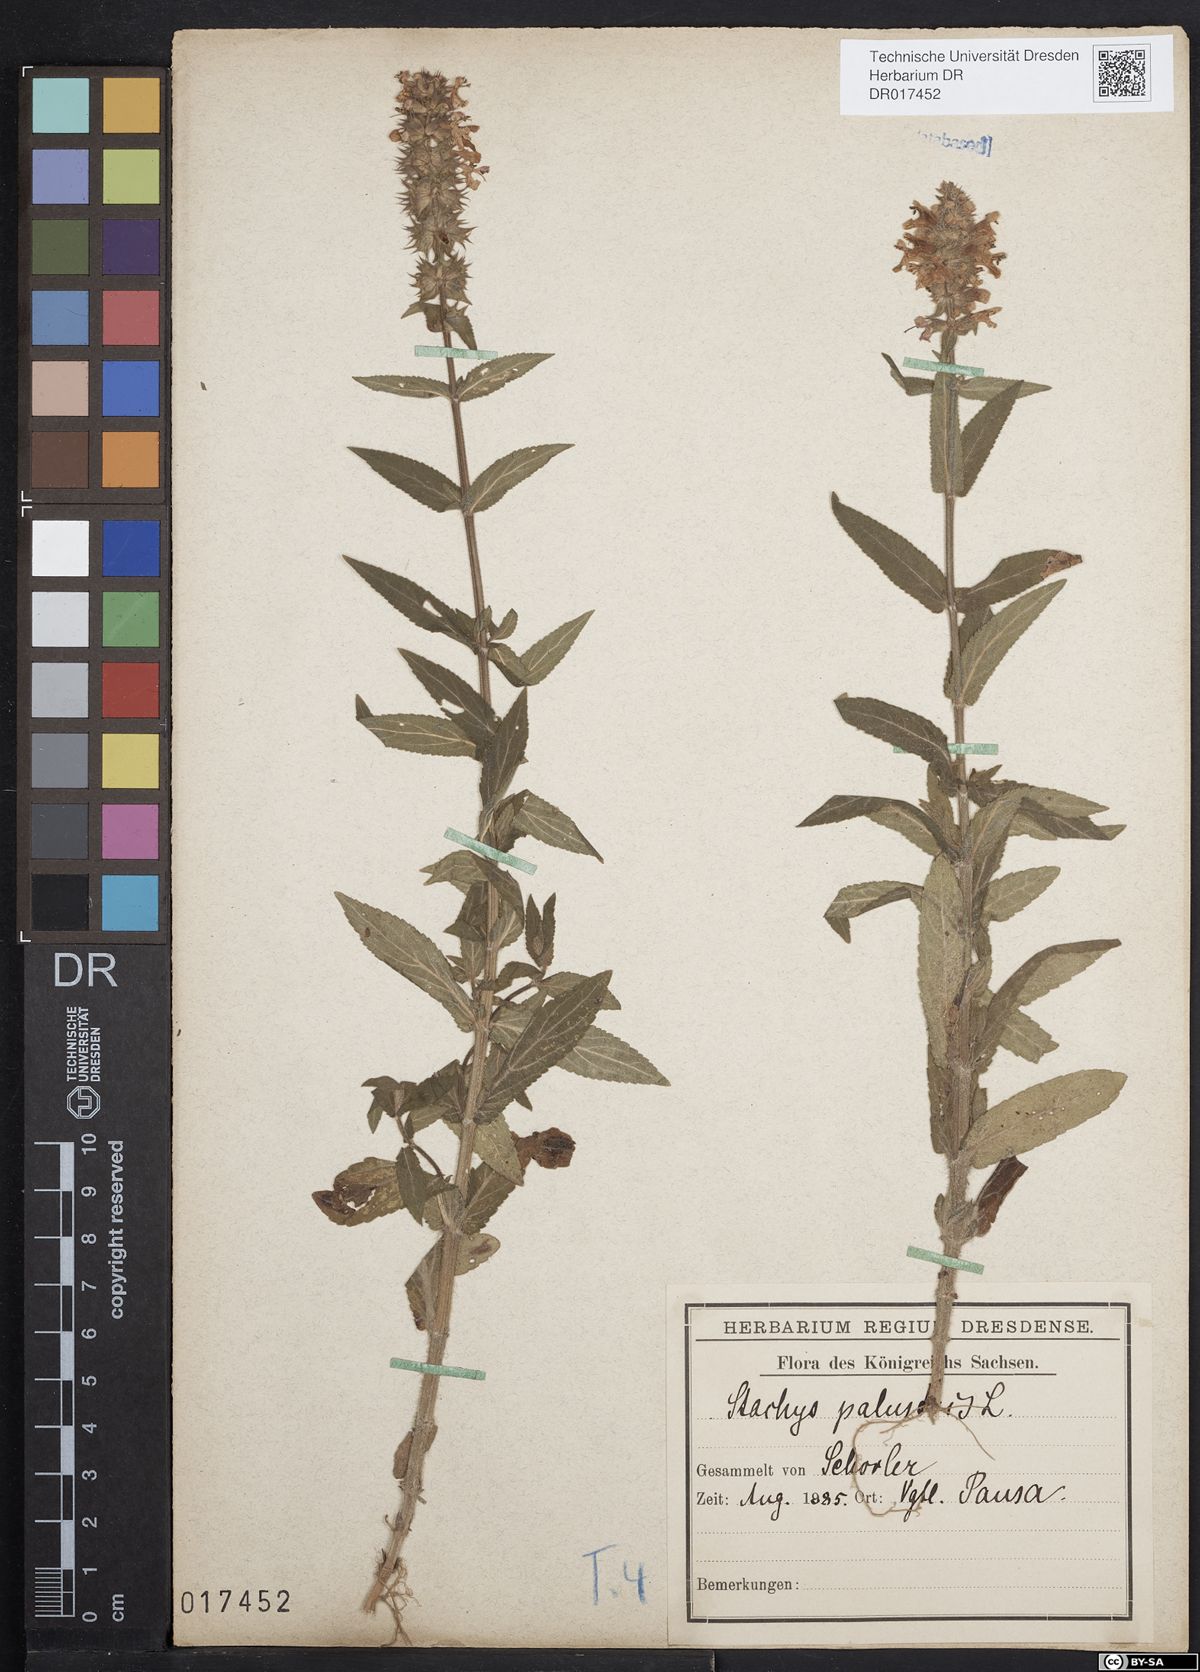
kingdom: Plantae
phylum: Tracheophyta
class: Magnoliopsida
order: Lamiales
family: Lamiaceae
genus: Stachys
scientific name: Stachys palustris
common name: Marsh woundwort
